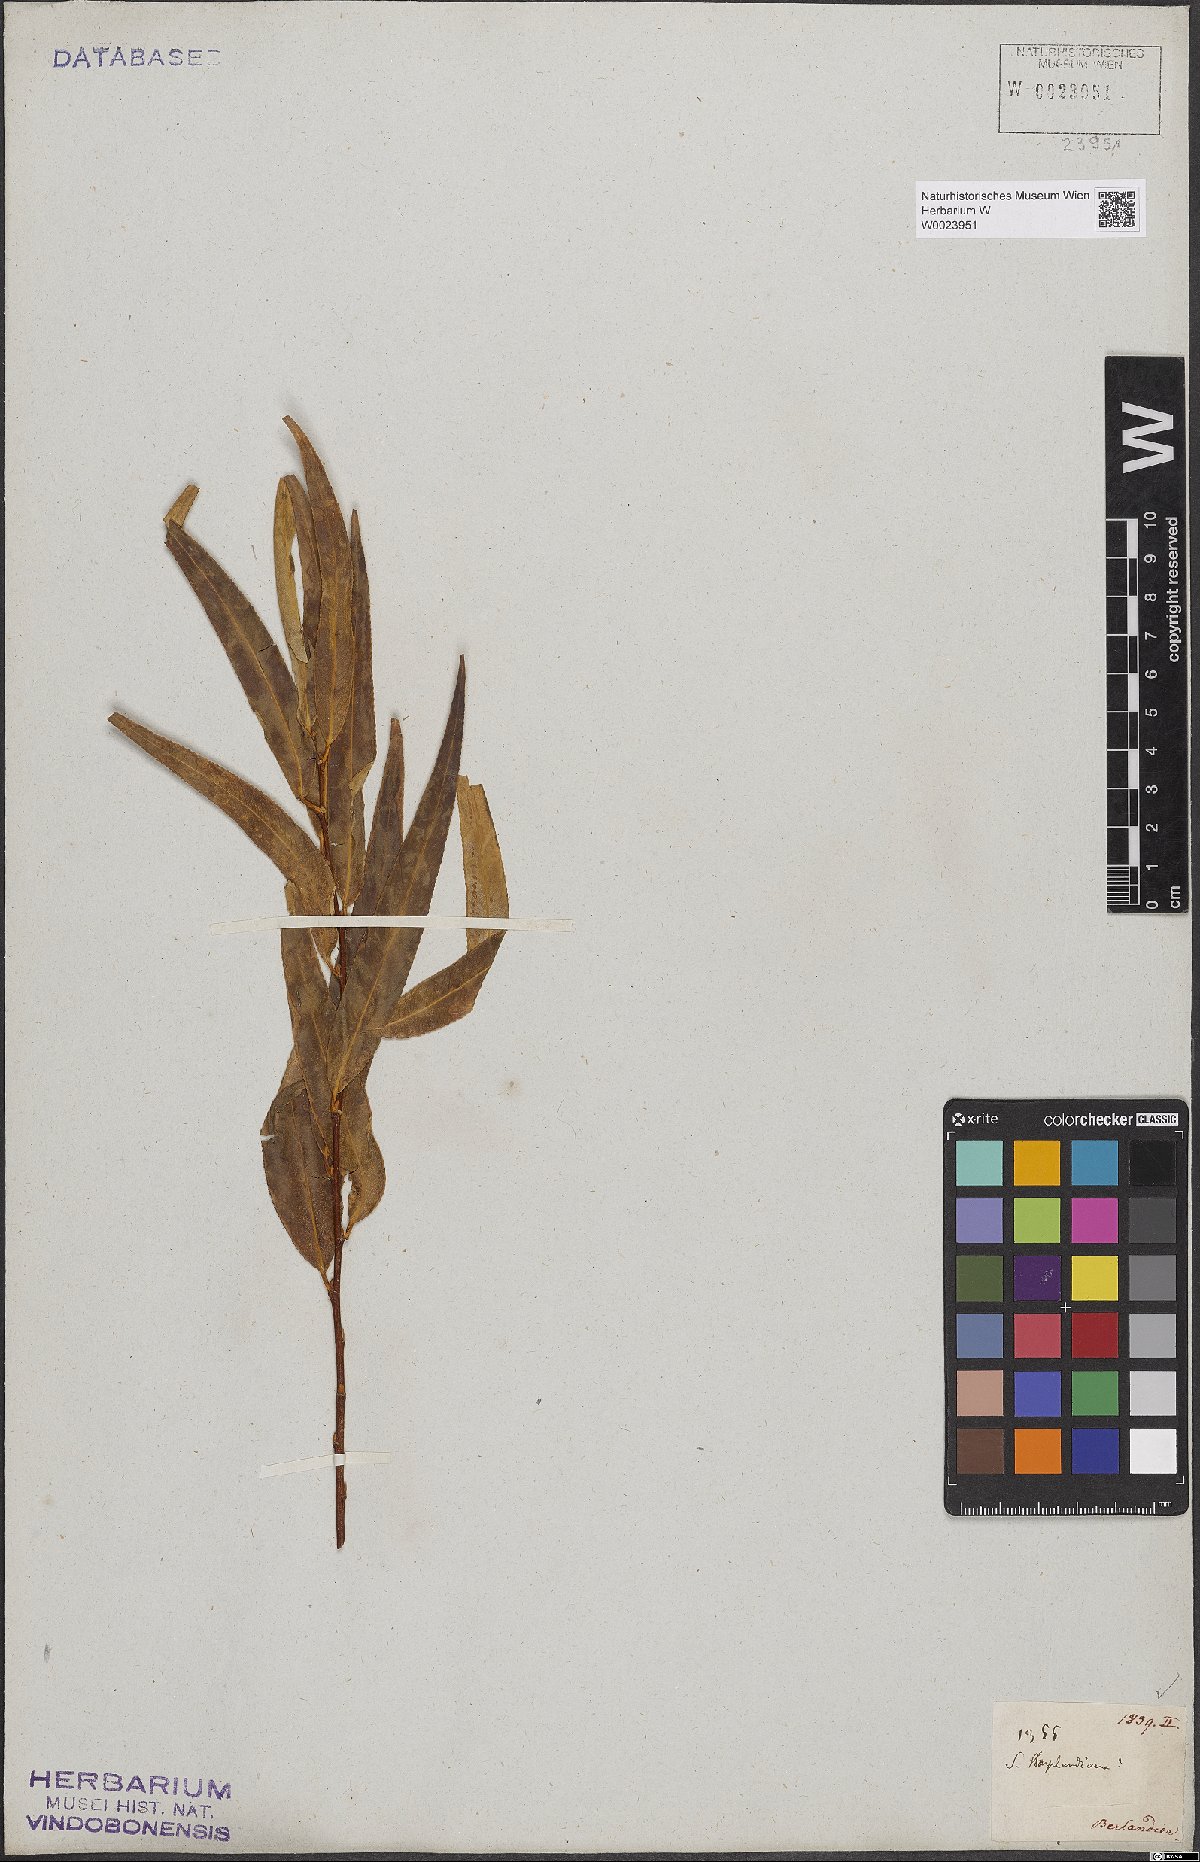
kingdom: Plantae
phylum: Tracheophyta
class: Magnoliopsida
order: Malpighiales
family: Salicaceae
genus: Salix
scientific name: Salix bonplandiana
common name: Bonpland’s willow
